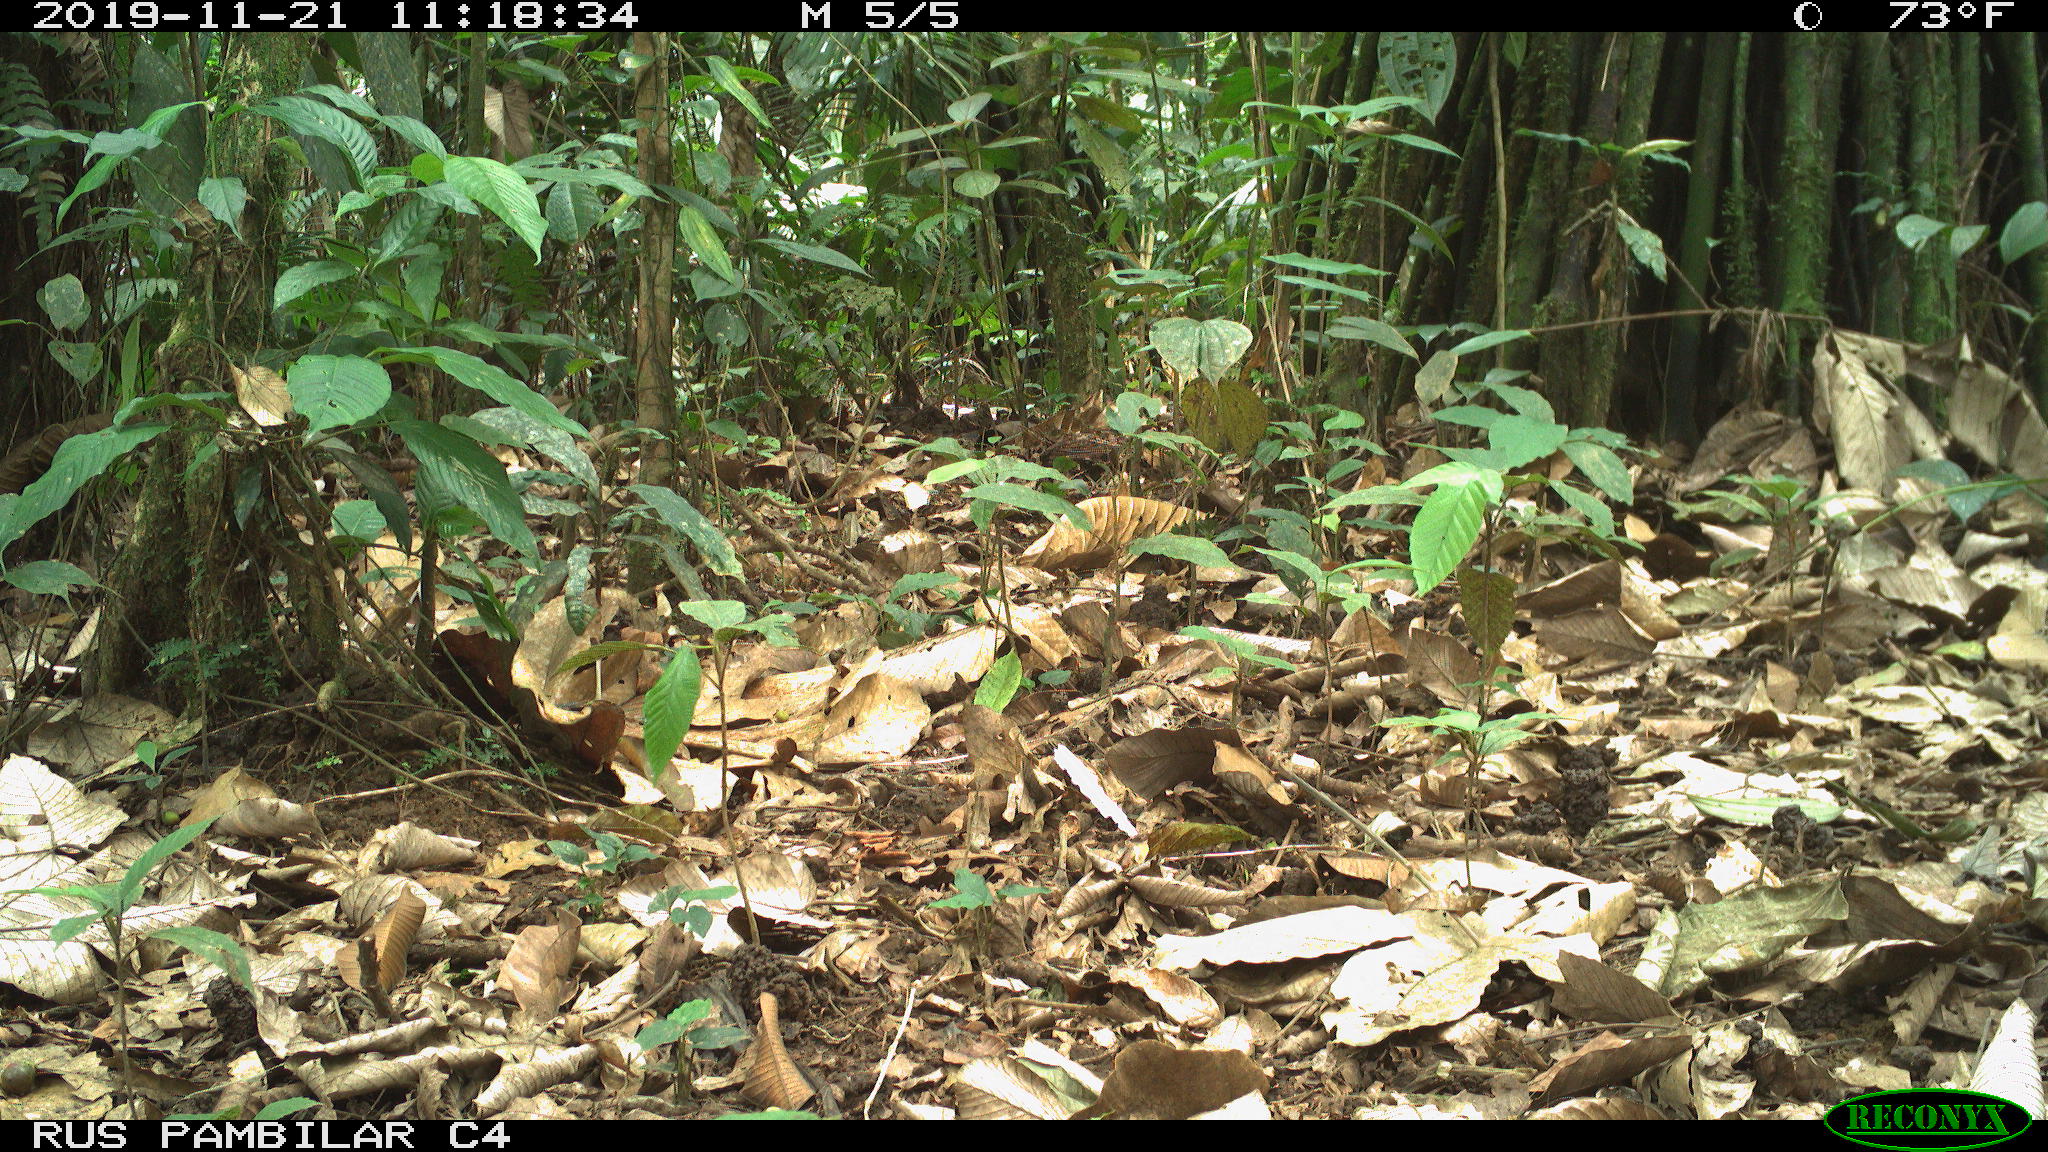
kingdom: Animalia
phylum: Chordata
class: Mammalia
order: Rodentia
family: Dasyproctidae
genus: Dasyprocta
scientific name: Dasyprocta punctata
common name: Central american agouti
